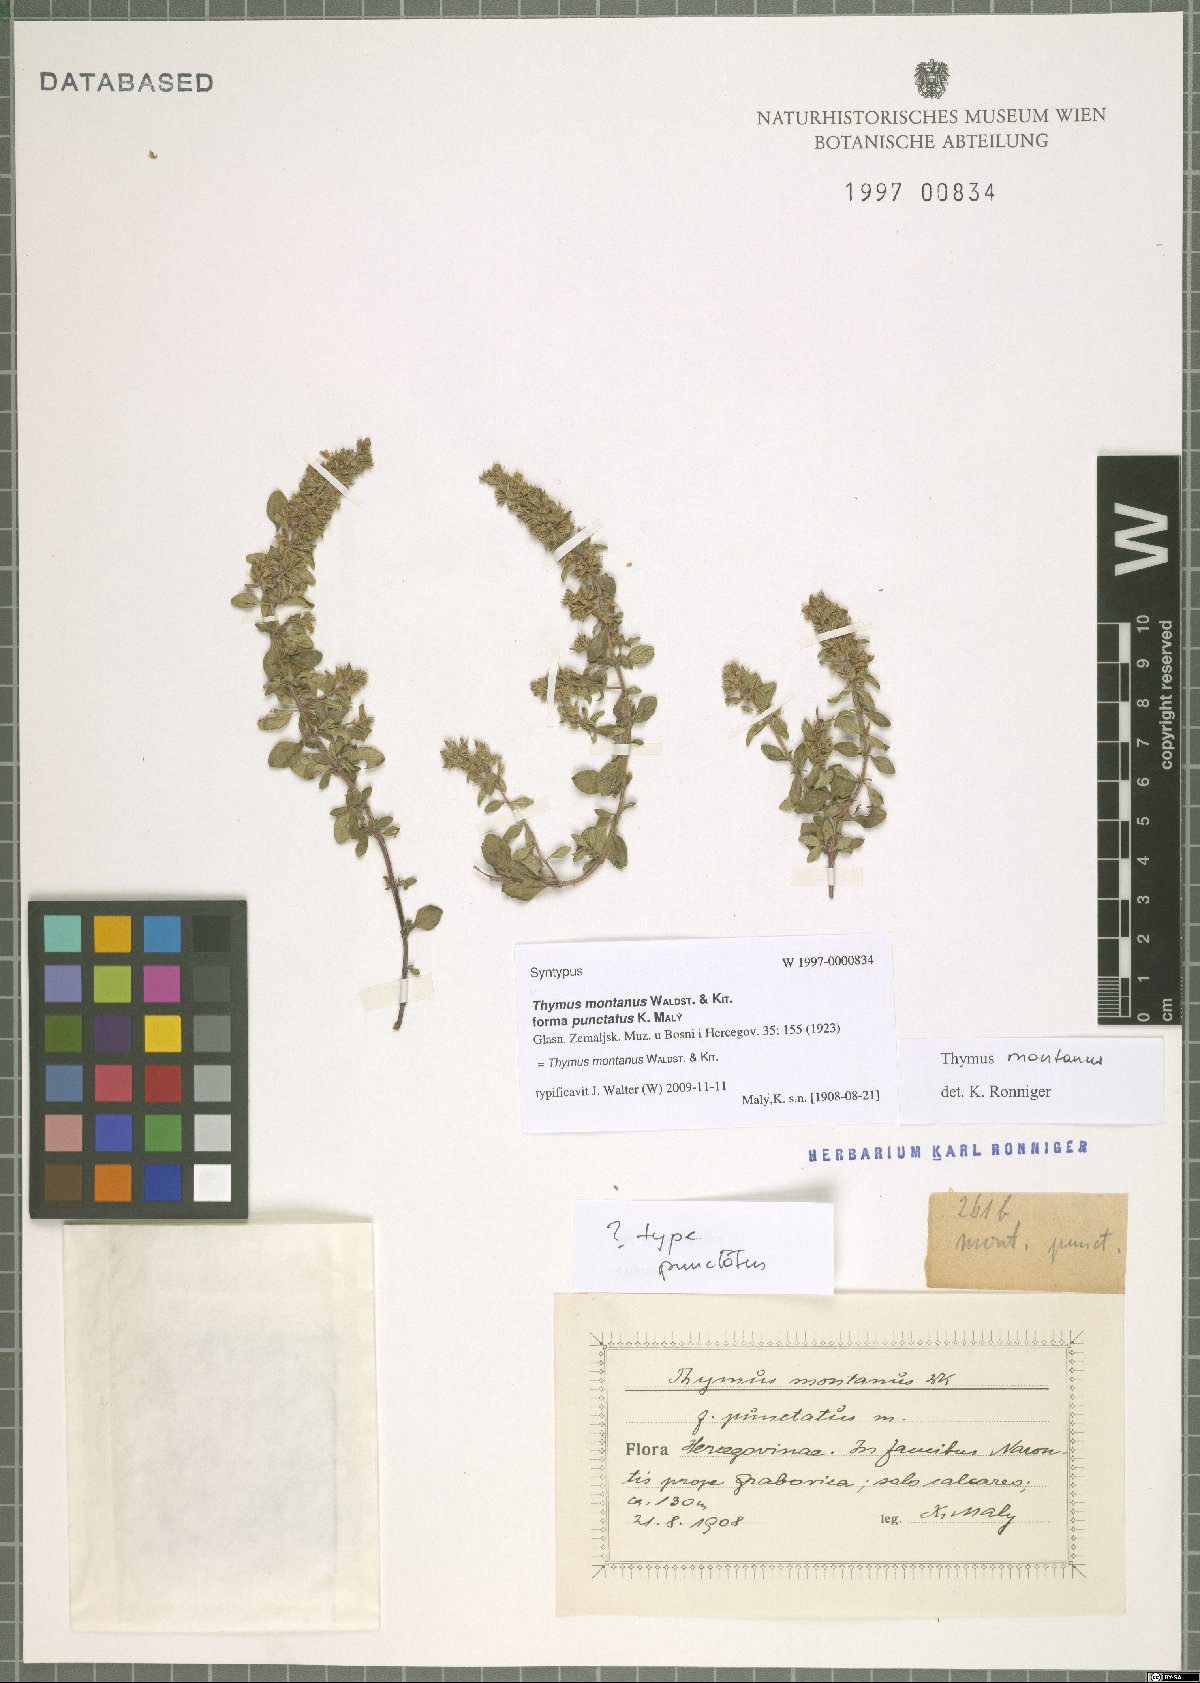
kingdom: Plantae
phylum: Tracheophyta
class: Magnoliopsida
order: Lamiales
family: Lamiaceae
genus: Thymus
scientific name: Thymus pulegioides
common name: Large thyme
